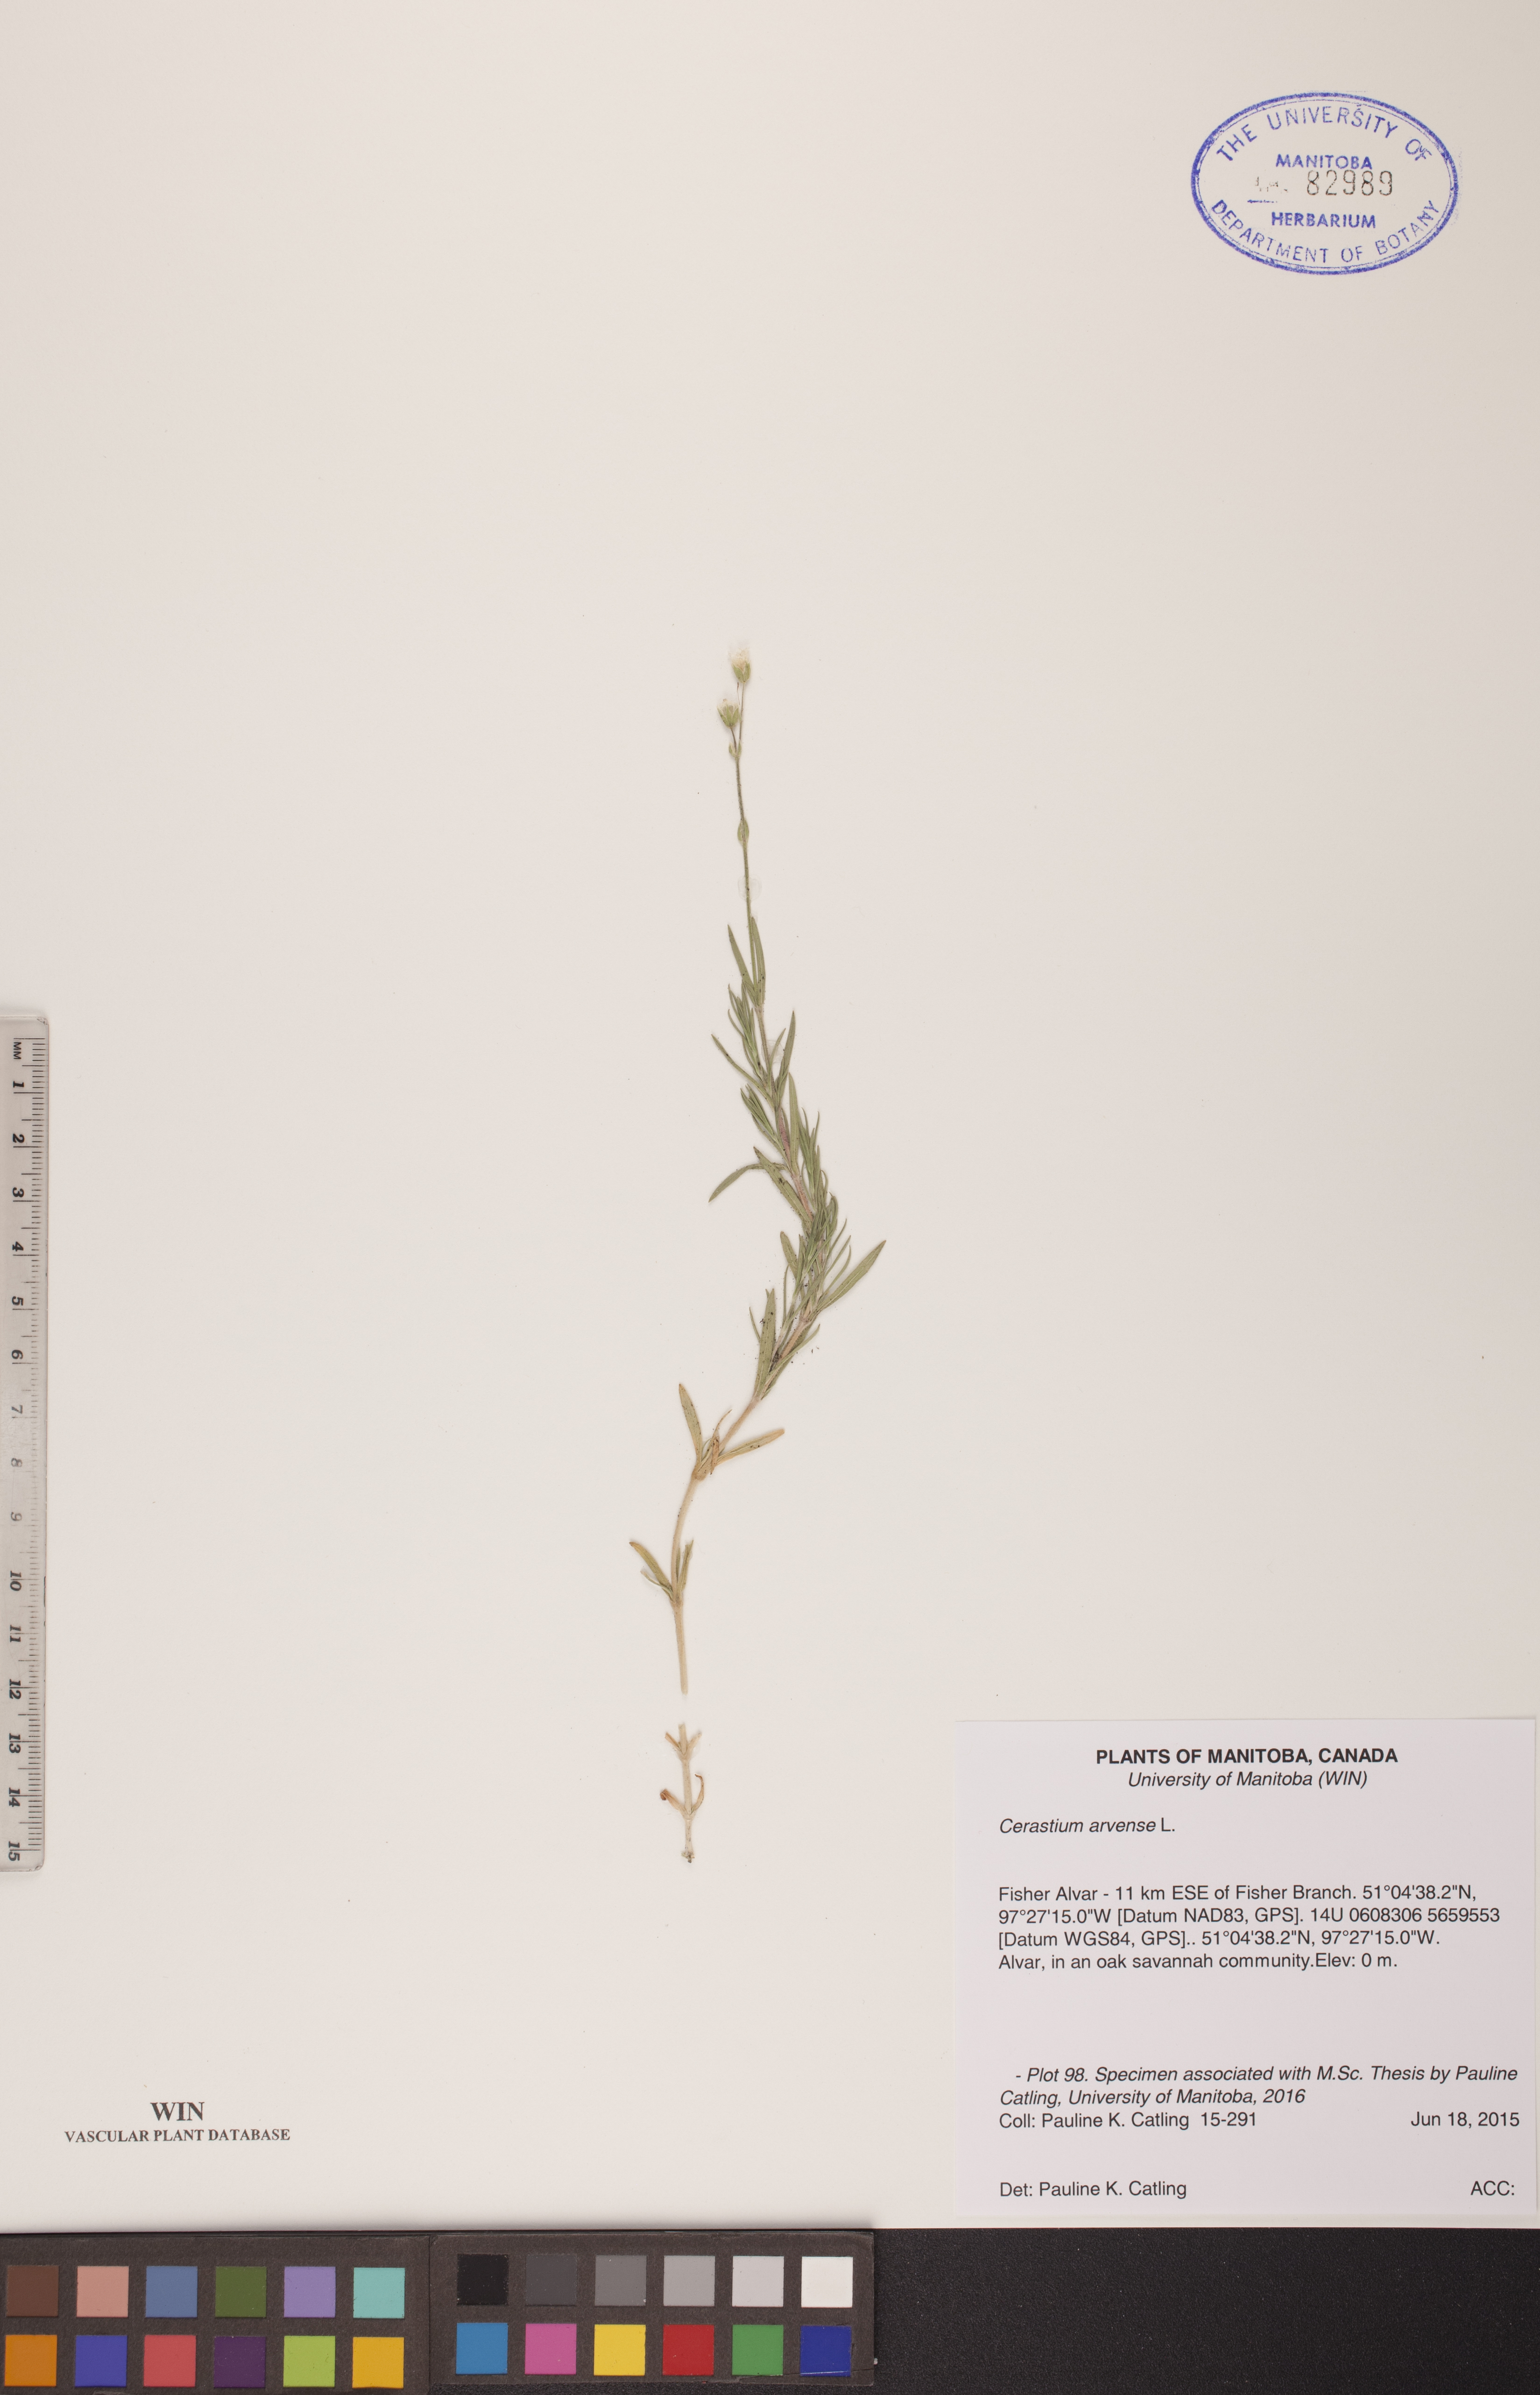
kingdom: Plantae
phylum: Tracheophyta
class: Magnoliopsida
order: Caryophyllales
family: Caryophyllaceae
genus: Cerastium
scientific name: Cerastium arvense
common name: Field mouse-ear
